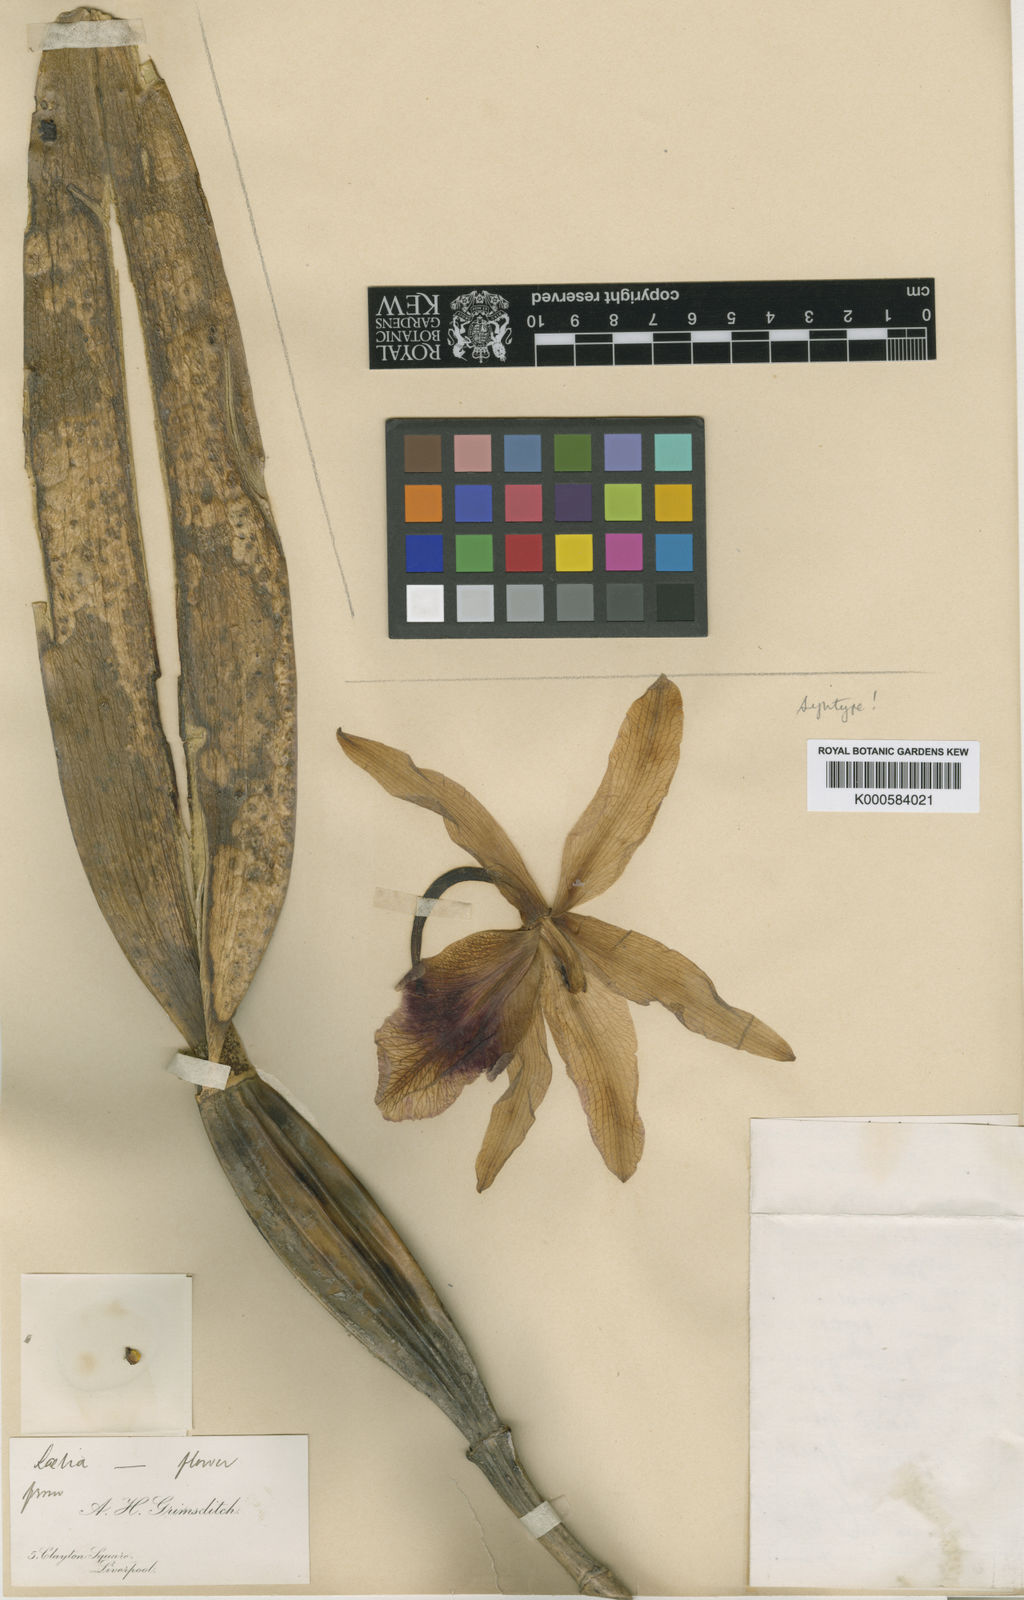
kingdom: Plantae
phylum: Tracheophyta
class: Liliopsida
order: Asparagales
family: Orchidaceae
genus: Cattleya
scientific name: Cattleya tenebrosa
